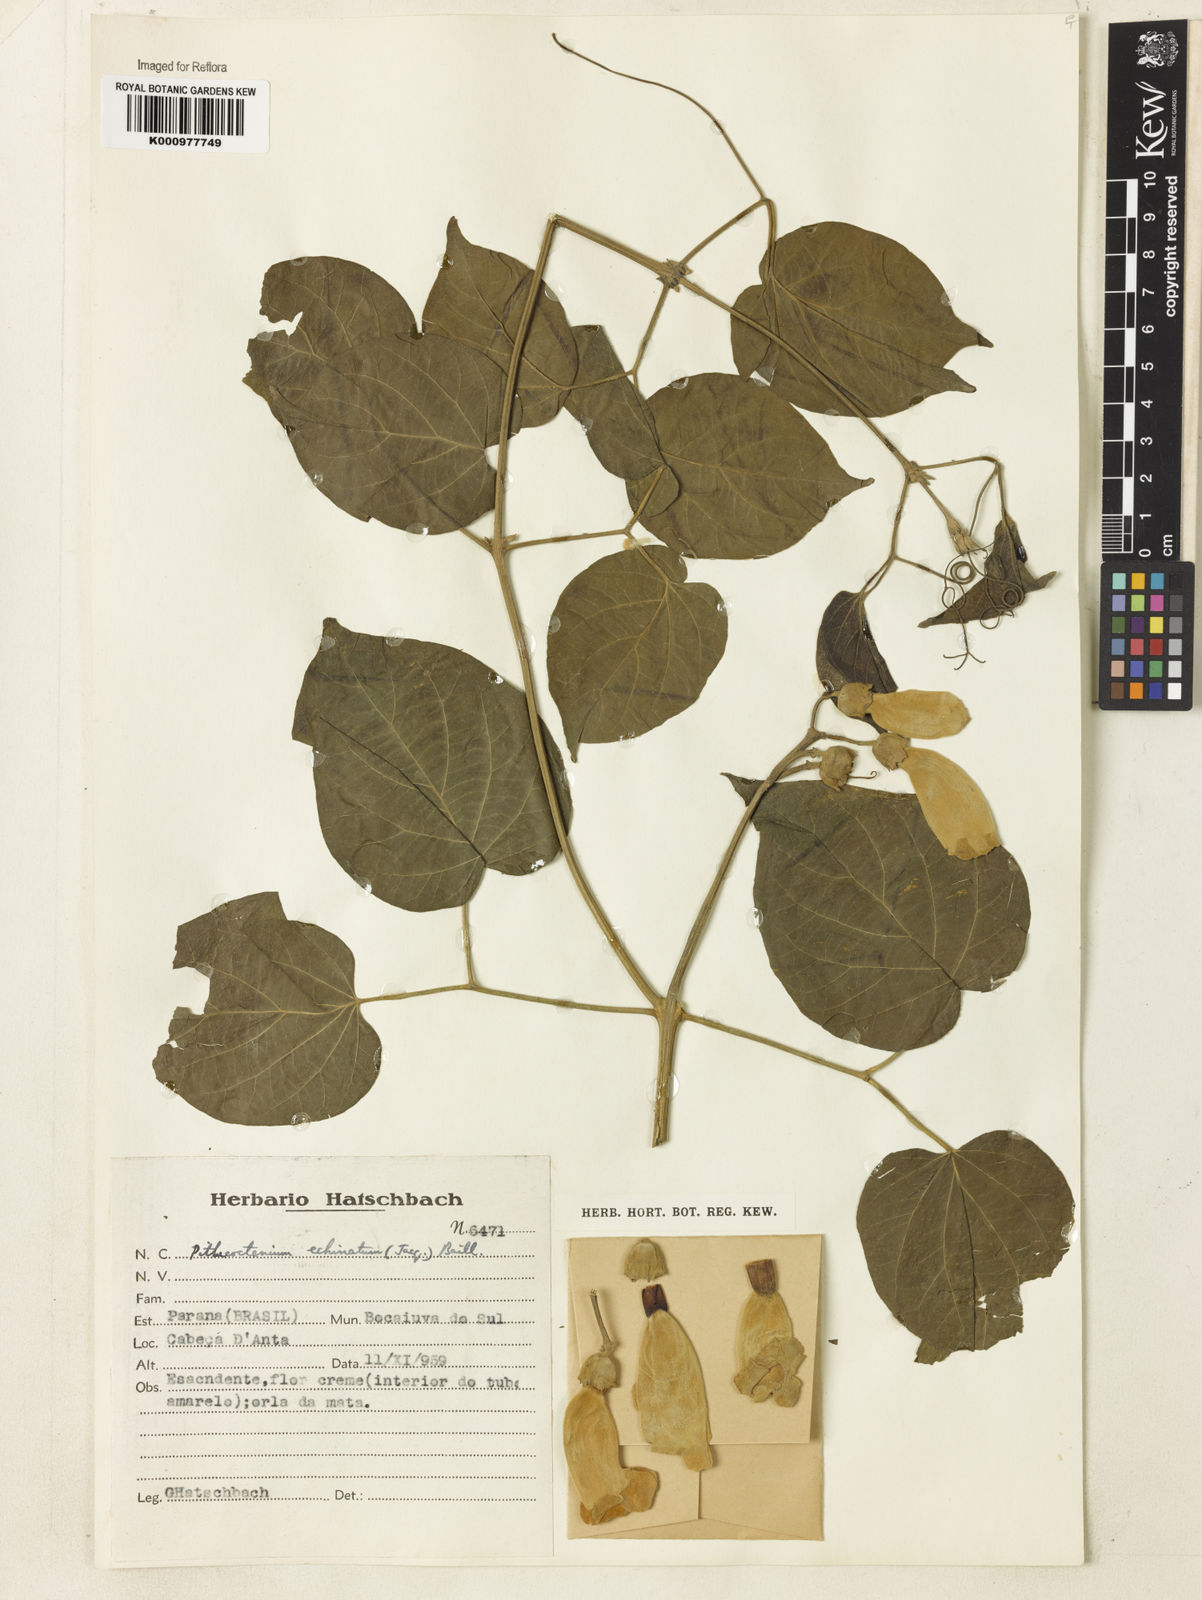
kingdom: Plantae
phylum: Tracheophyta
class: Magnoliopsida
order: Lamiales
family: Bignoniaceae
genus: Amphilophium
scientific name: Amphilophium crucigerum
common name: Monkey comb
